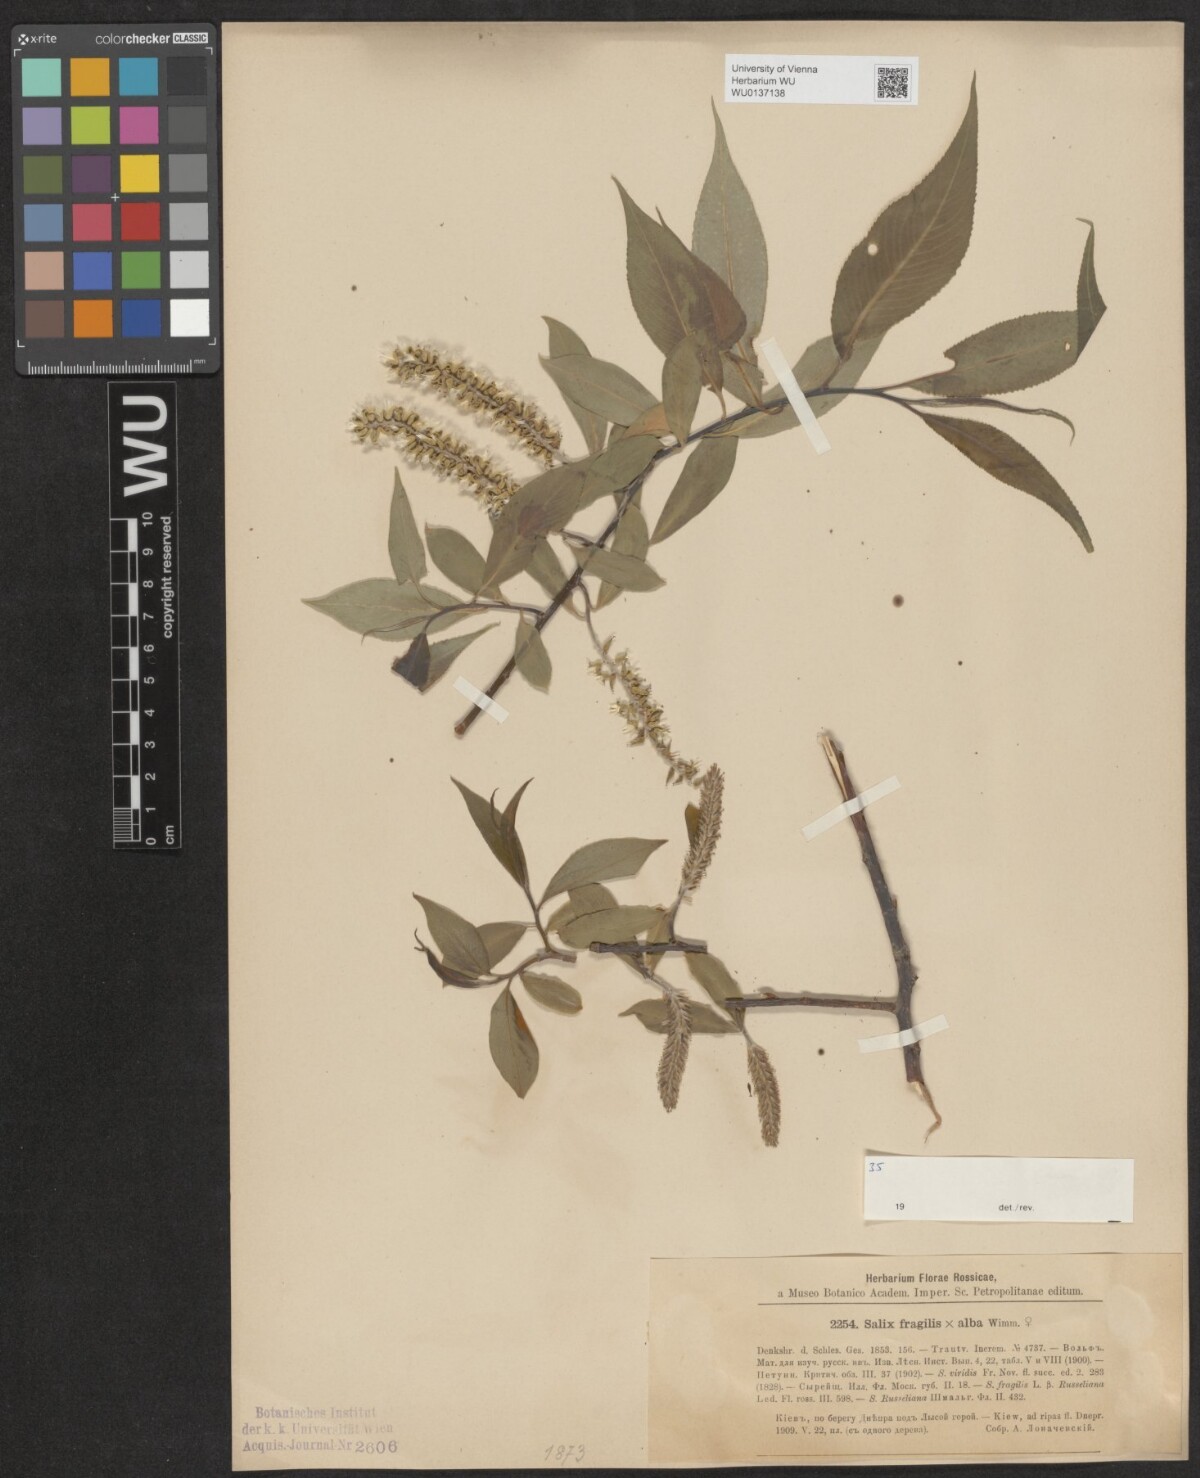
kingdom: Plantae
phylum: Tracheophyta
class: Magnoliopsida
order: Malpighiales
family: Salicaceae
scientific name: Salicaceae
